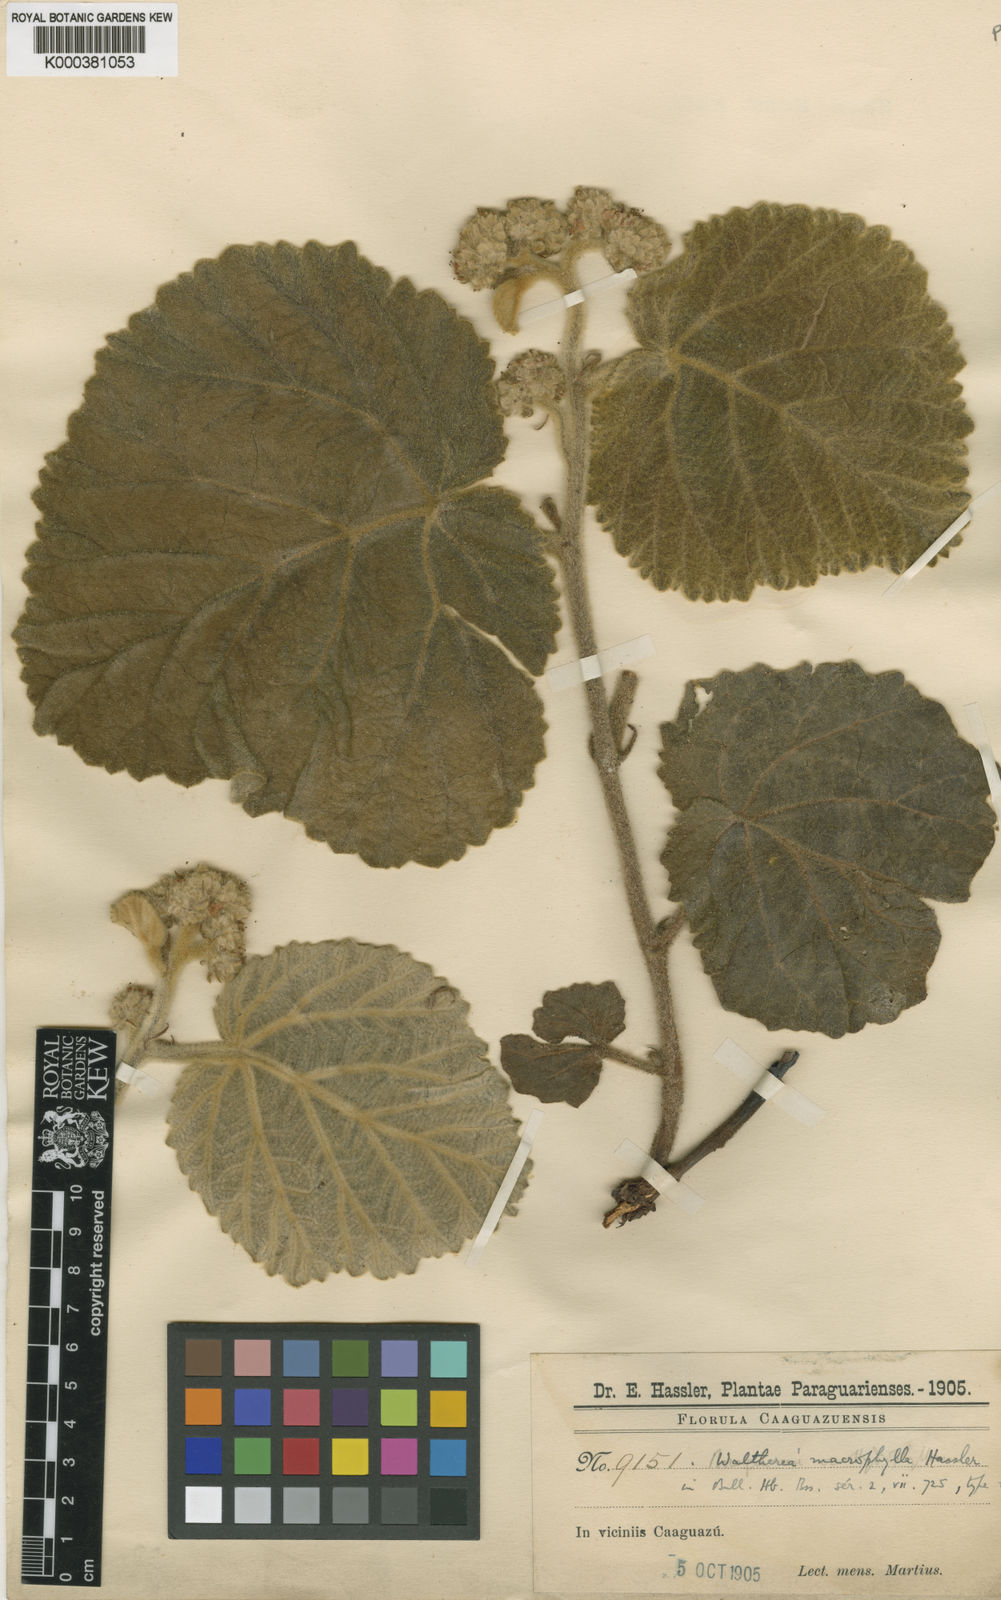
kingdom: Plantae
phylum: Tracheophyta
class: Magnoliopsida
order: Malvales
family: Malvaceae
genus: Waltheria
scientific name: Waltheria macrophylla
